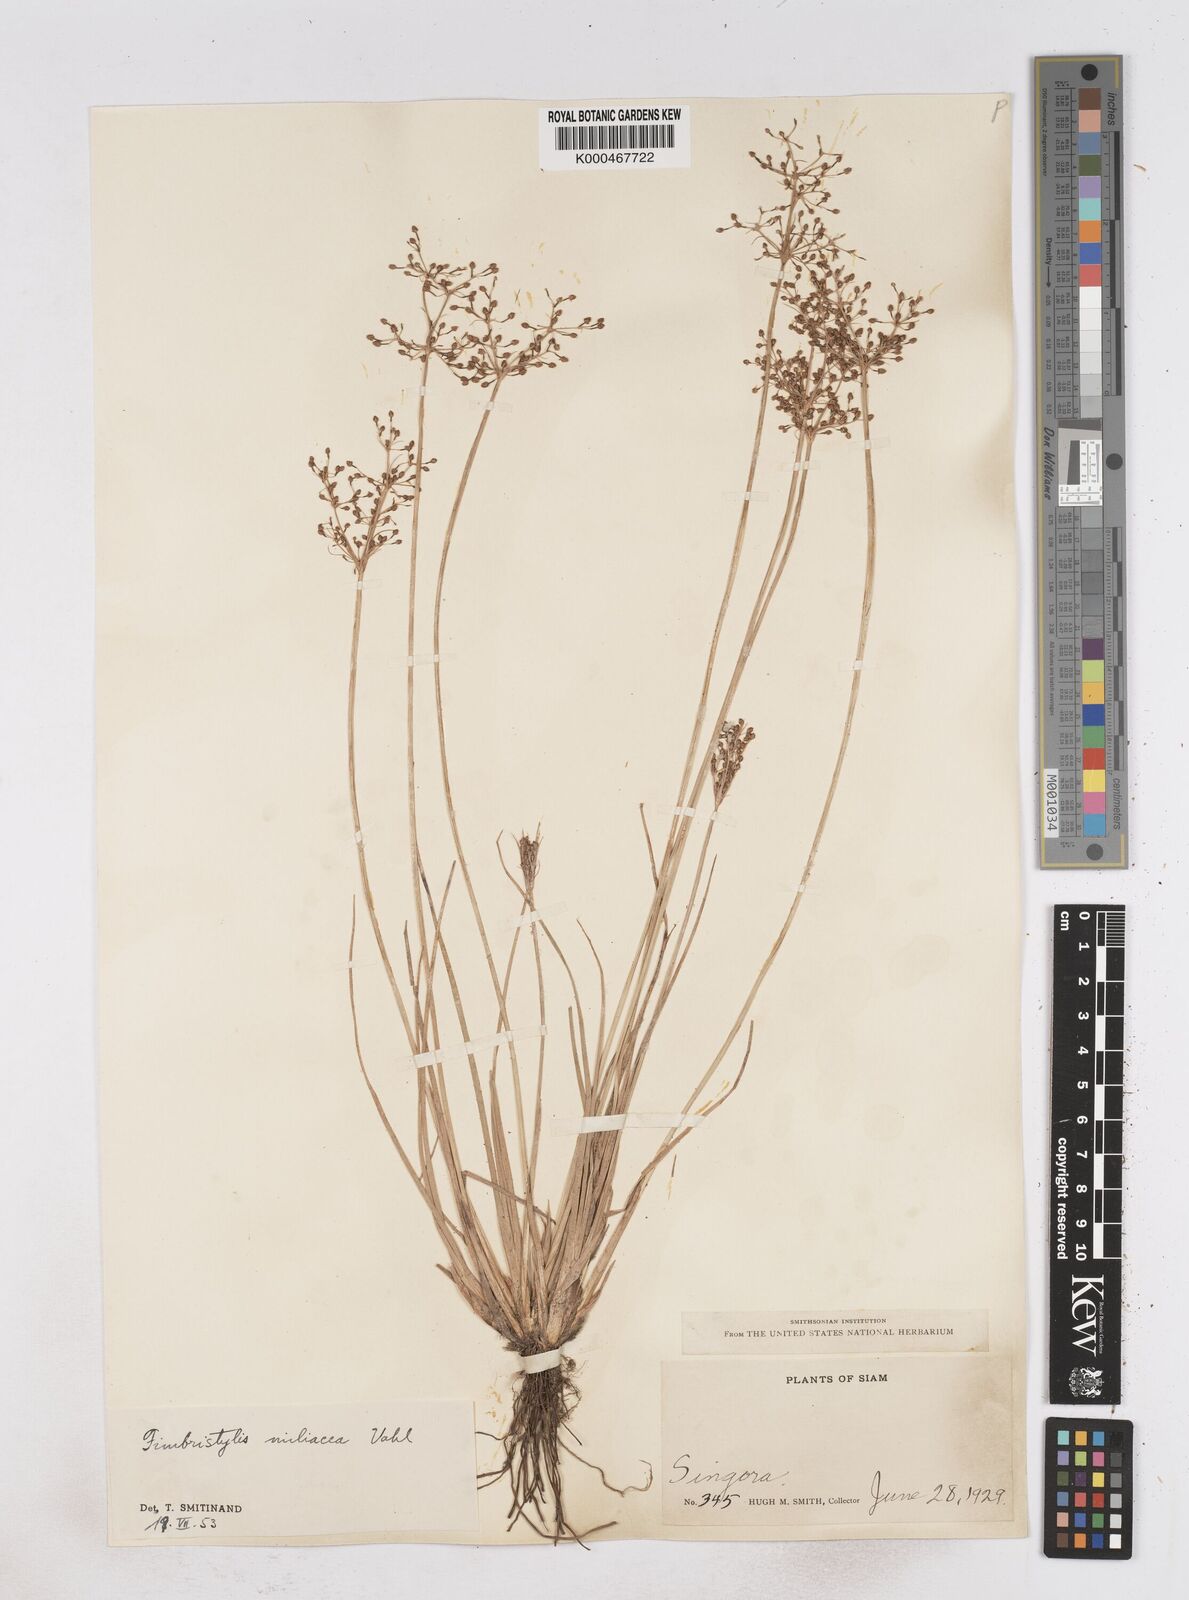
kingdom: Plantae
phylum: Tracheophyta
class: Liliopsida
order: Poales
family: Cyperaceae
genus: Fimbristylis
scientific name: Fimbristylis quinquangularis
